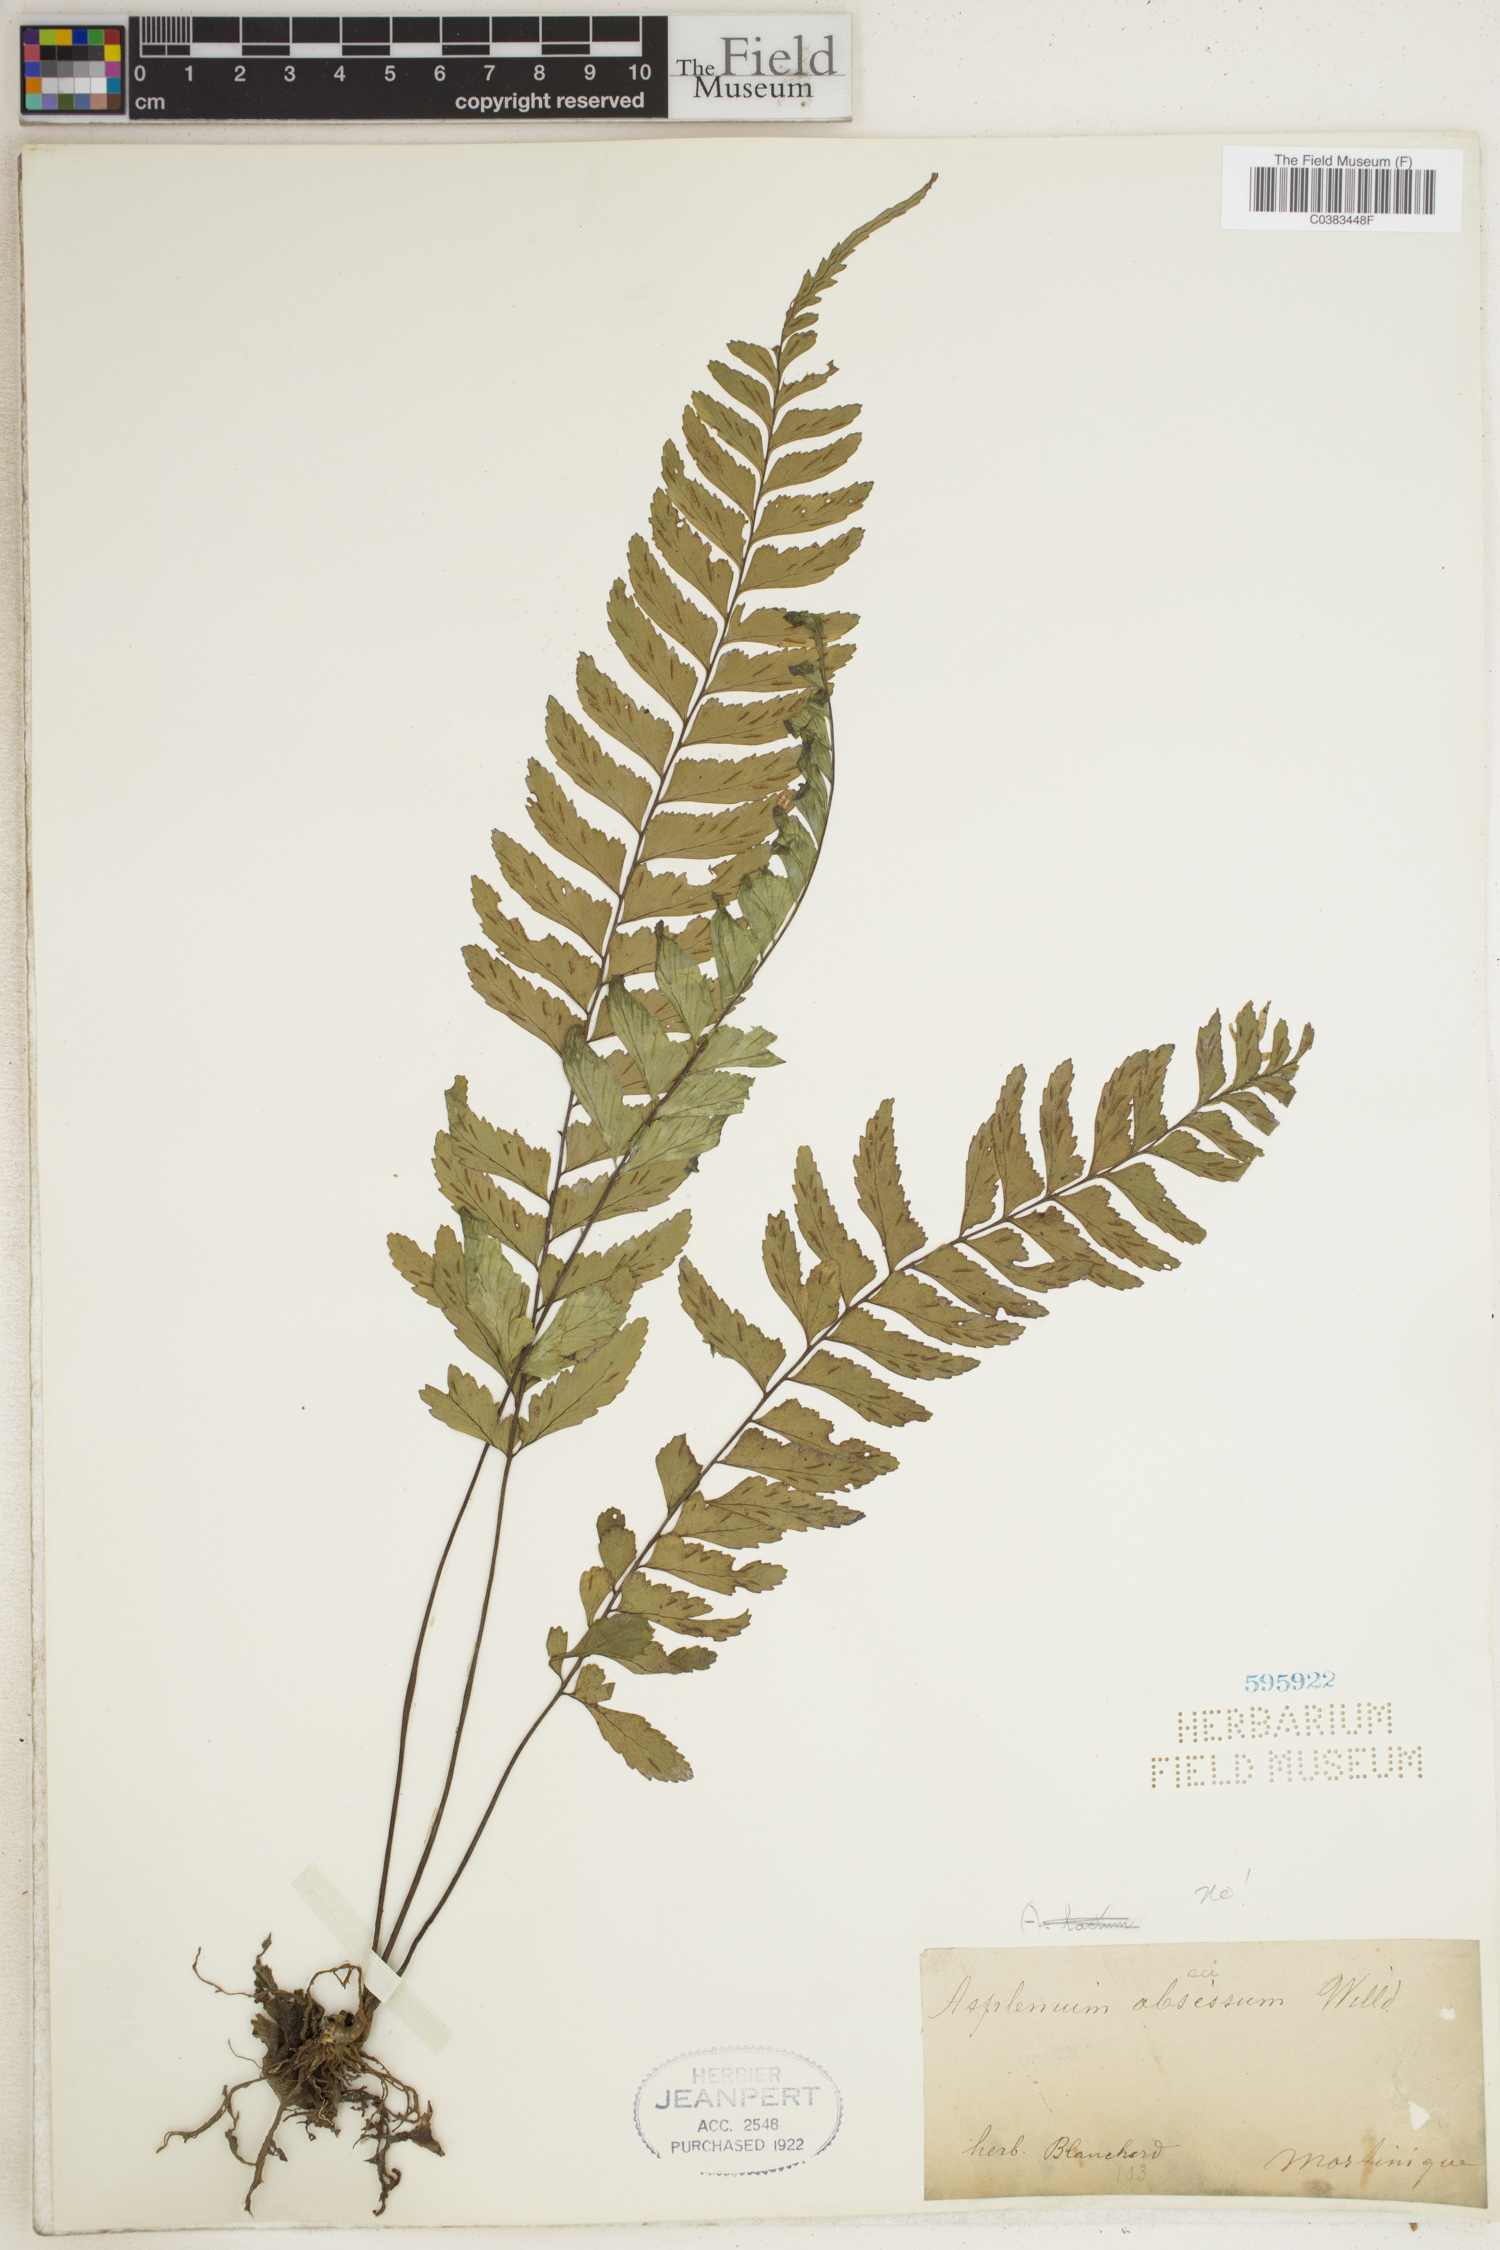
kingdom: Plantae
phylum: Tracheophyta
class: Polypodiopsida
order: Polypodiales
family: Aspleniaceae
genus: Asplenium
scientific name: Asplenium abscissum
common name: Cutleaf spleenwort
